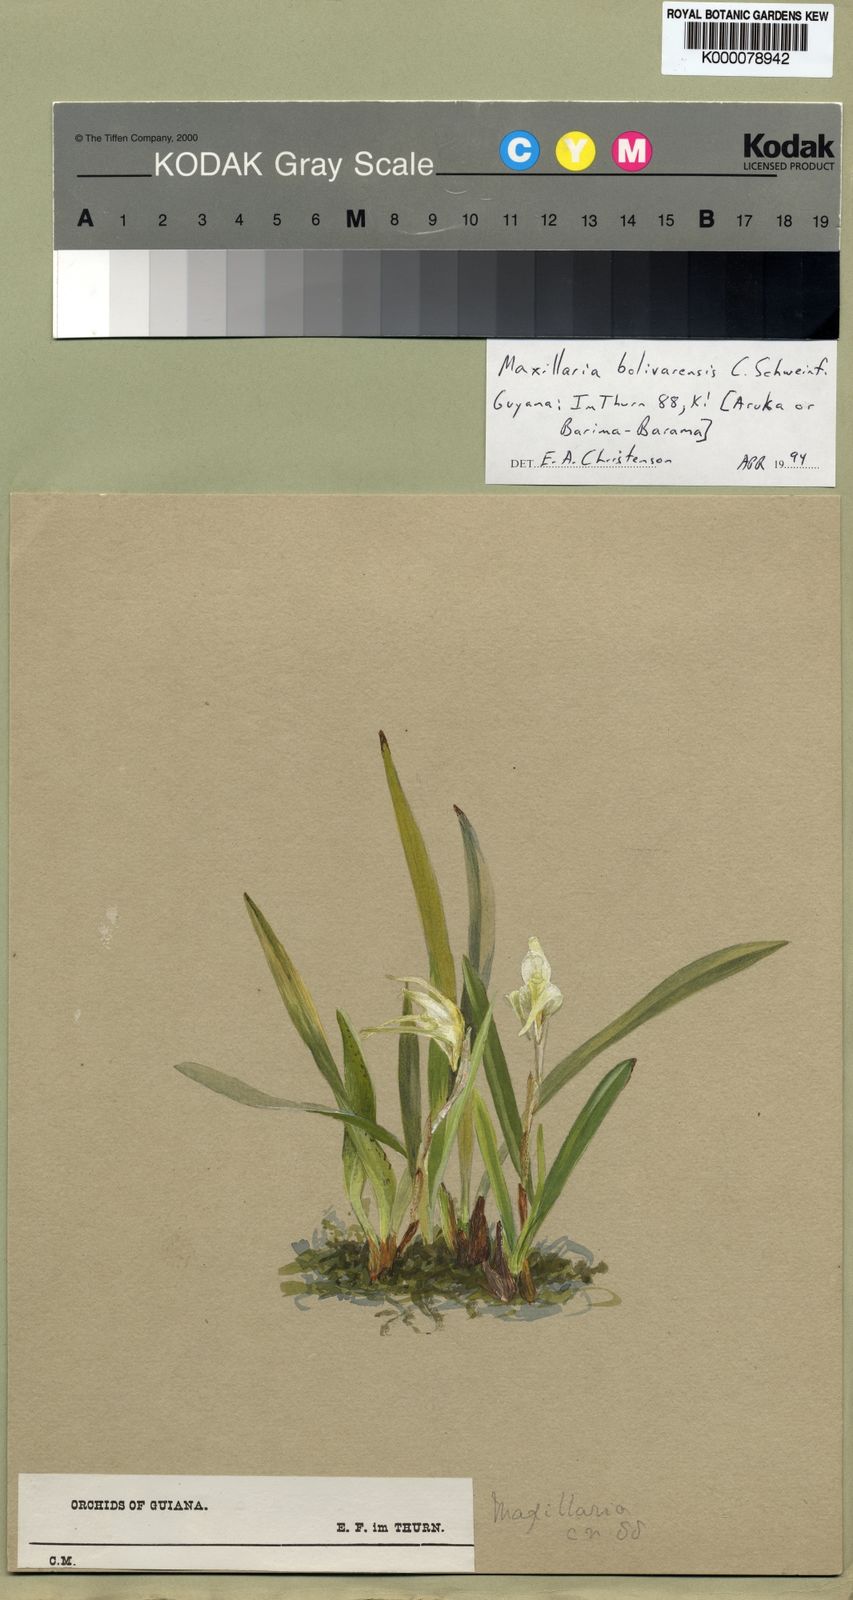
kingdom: Plantae
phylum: Tracheophyta
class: Liliopsida
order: Asparagales
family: Orchidaceae
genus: Maxillaria
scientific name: Maxillaria bolivarensis
